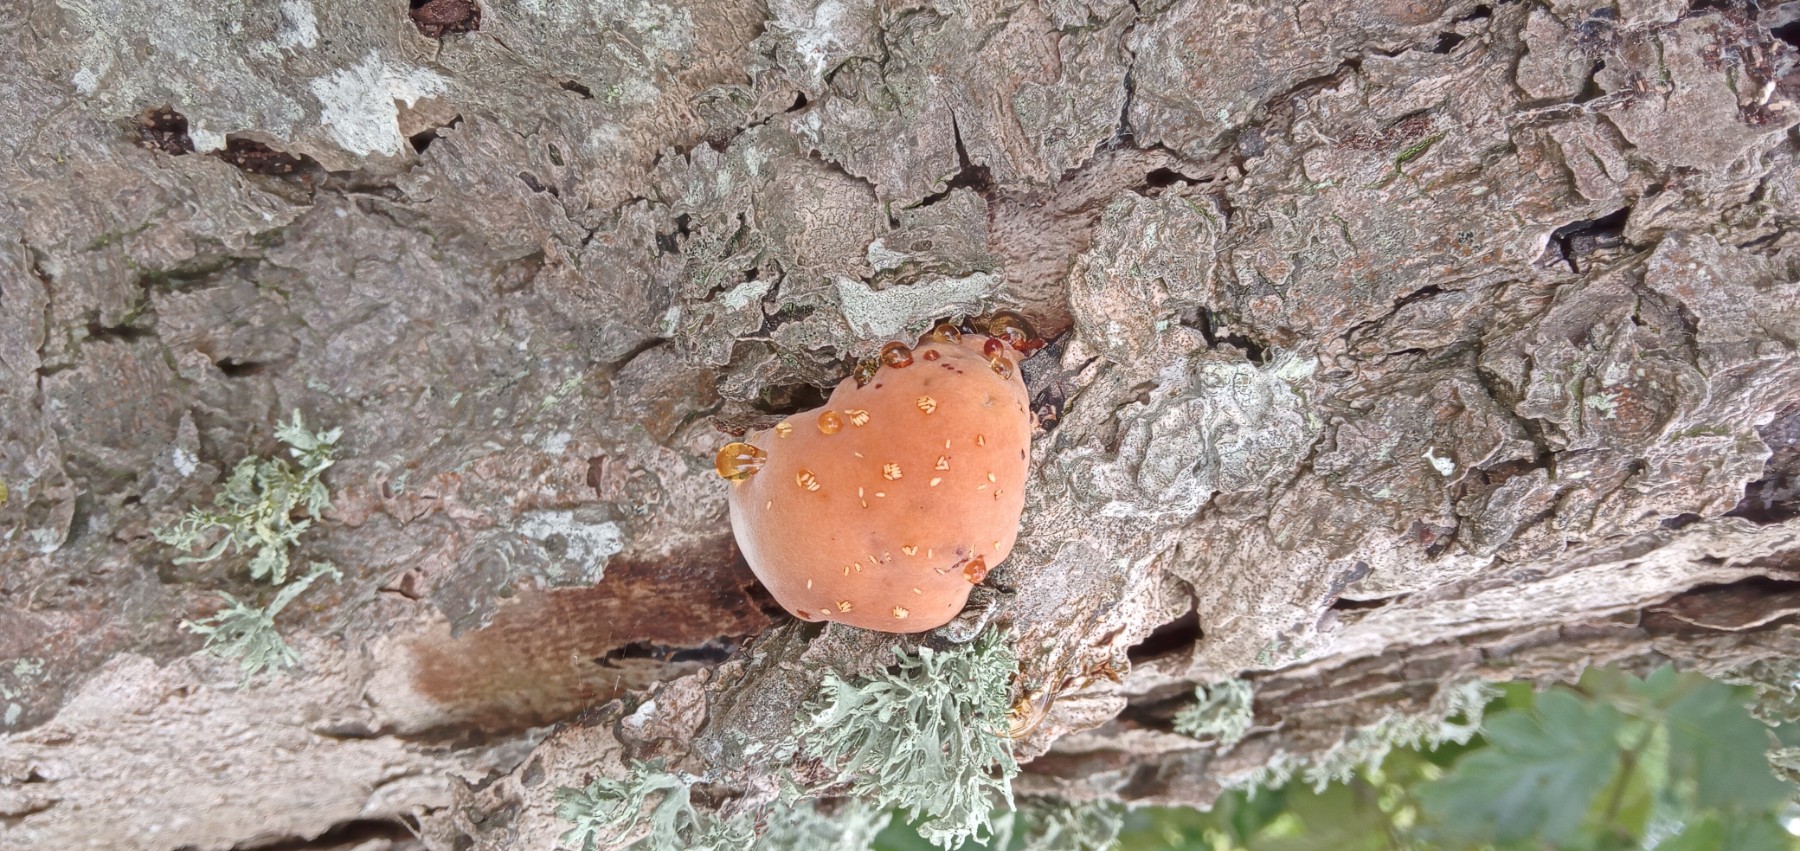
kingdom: Fungi
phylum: Basidiomycota
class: Agaricomycetes
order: Hymenochaetales
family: Hymenochaetaceae
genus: Inonotus
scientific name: Inonotus hispidus
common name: børstehåret spejlporesvamp
